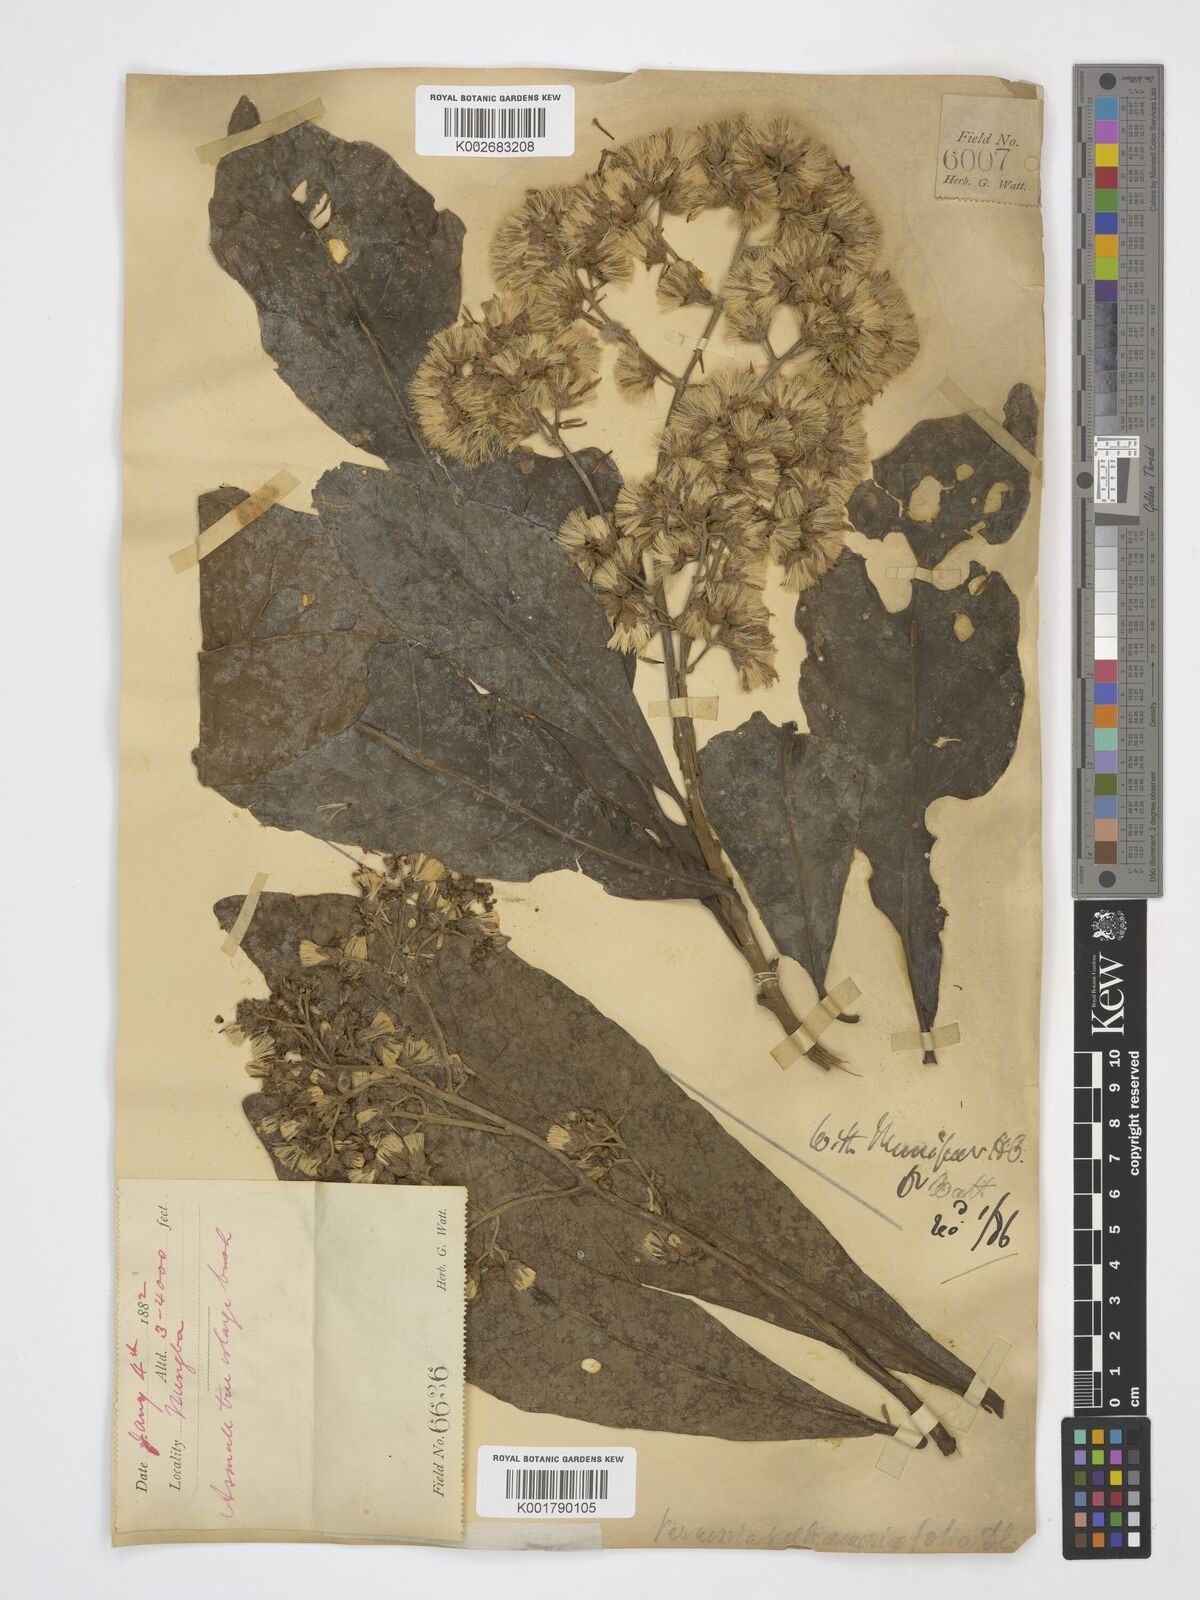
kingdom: Plantae
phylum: Tracheophyta
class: Magnoliopsida
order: Asterales
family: Asteraceae
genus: Monosis
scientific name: Monosis volkameriifolia
